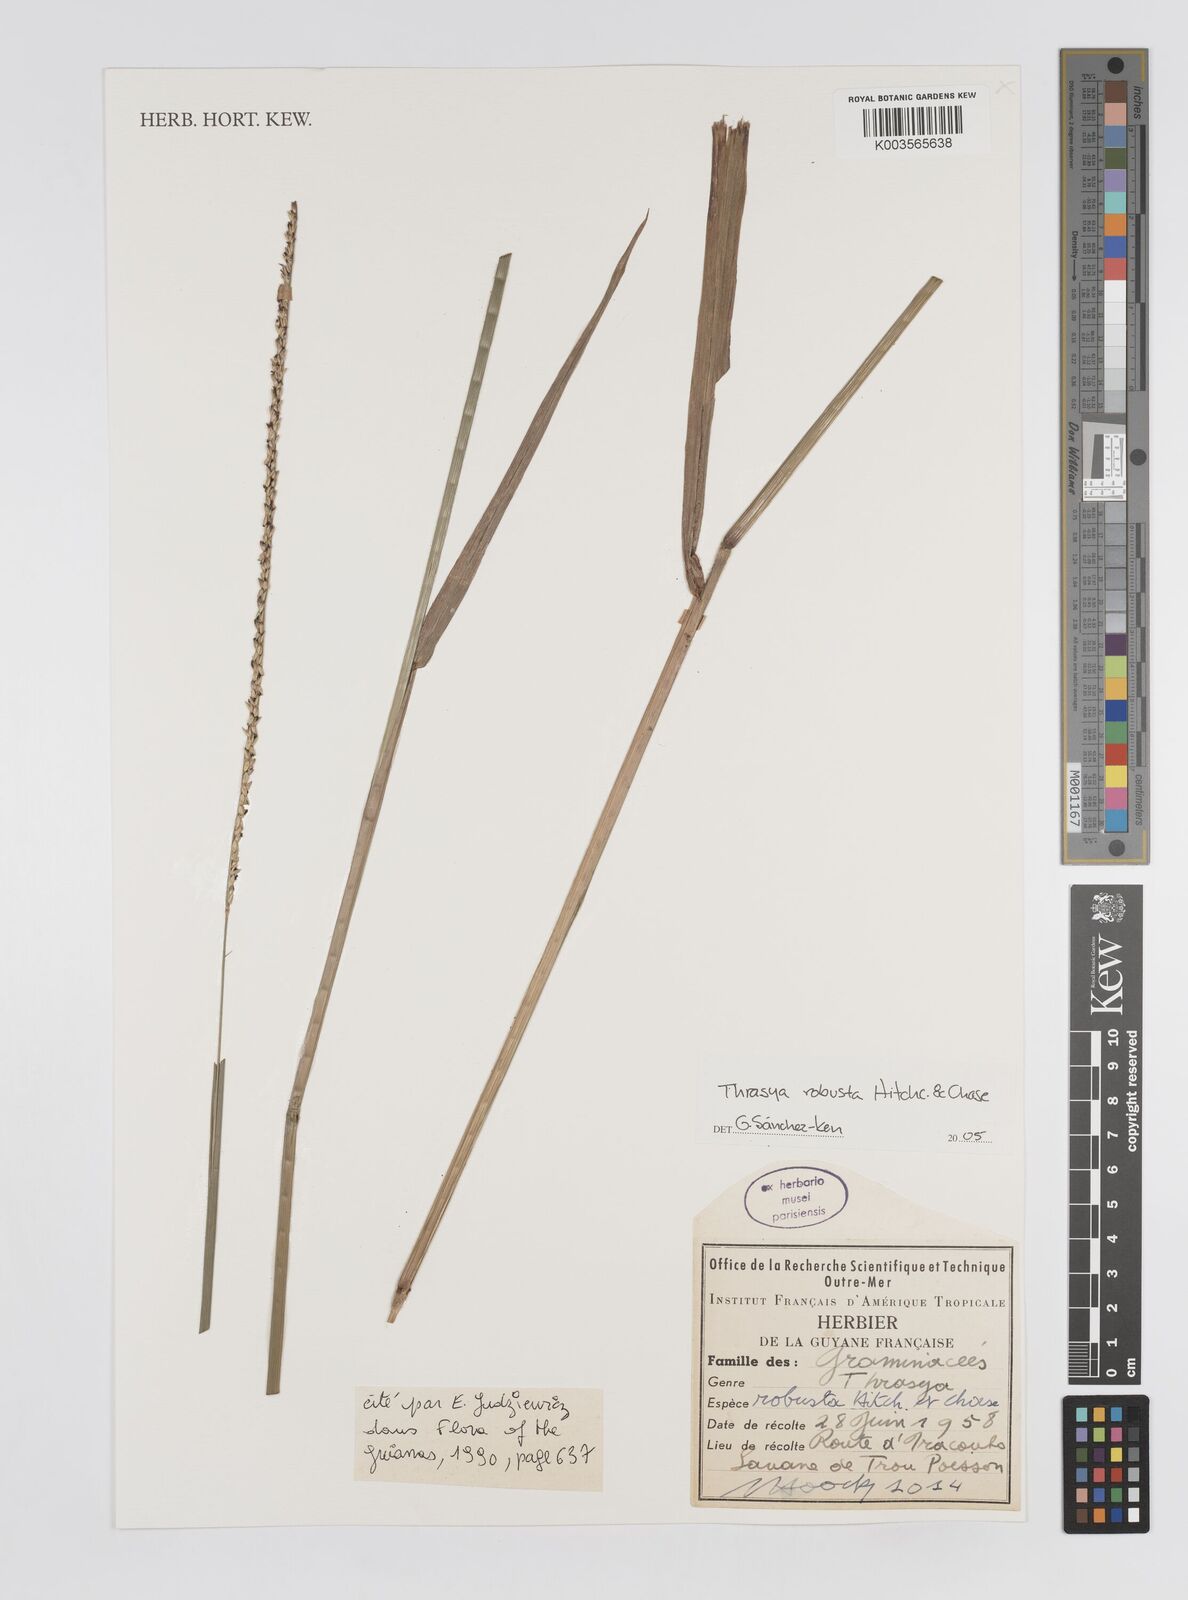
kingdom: Plantae
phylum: Tracheophyta
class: Liliopsida
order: Poales
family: Poaceae
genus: Paspalum
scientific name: Paspalum robustum
